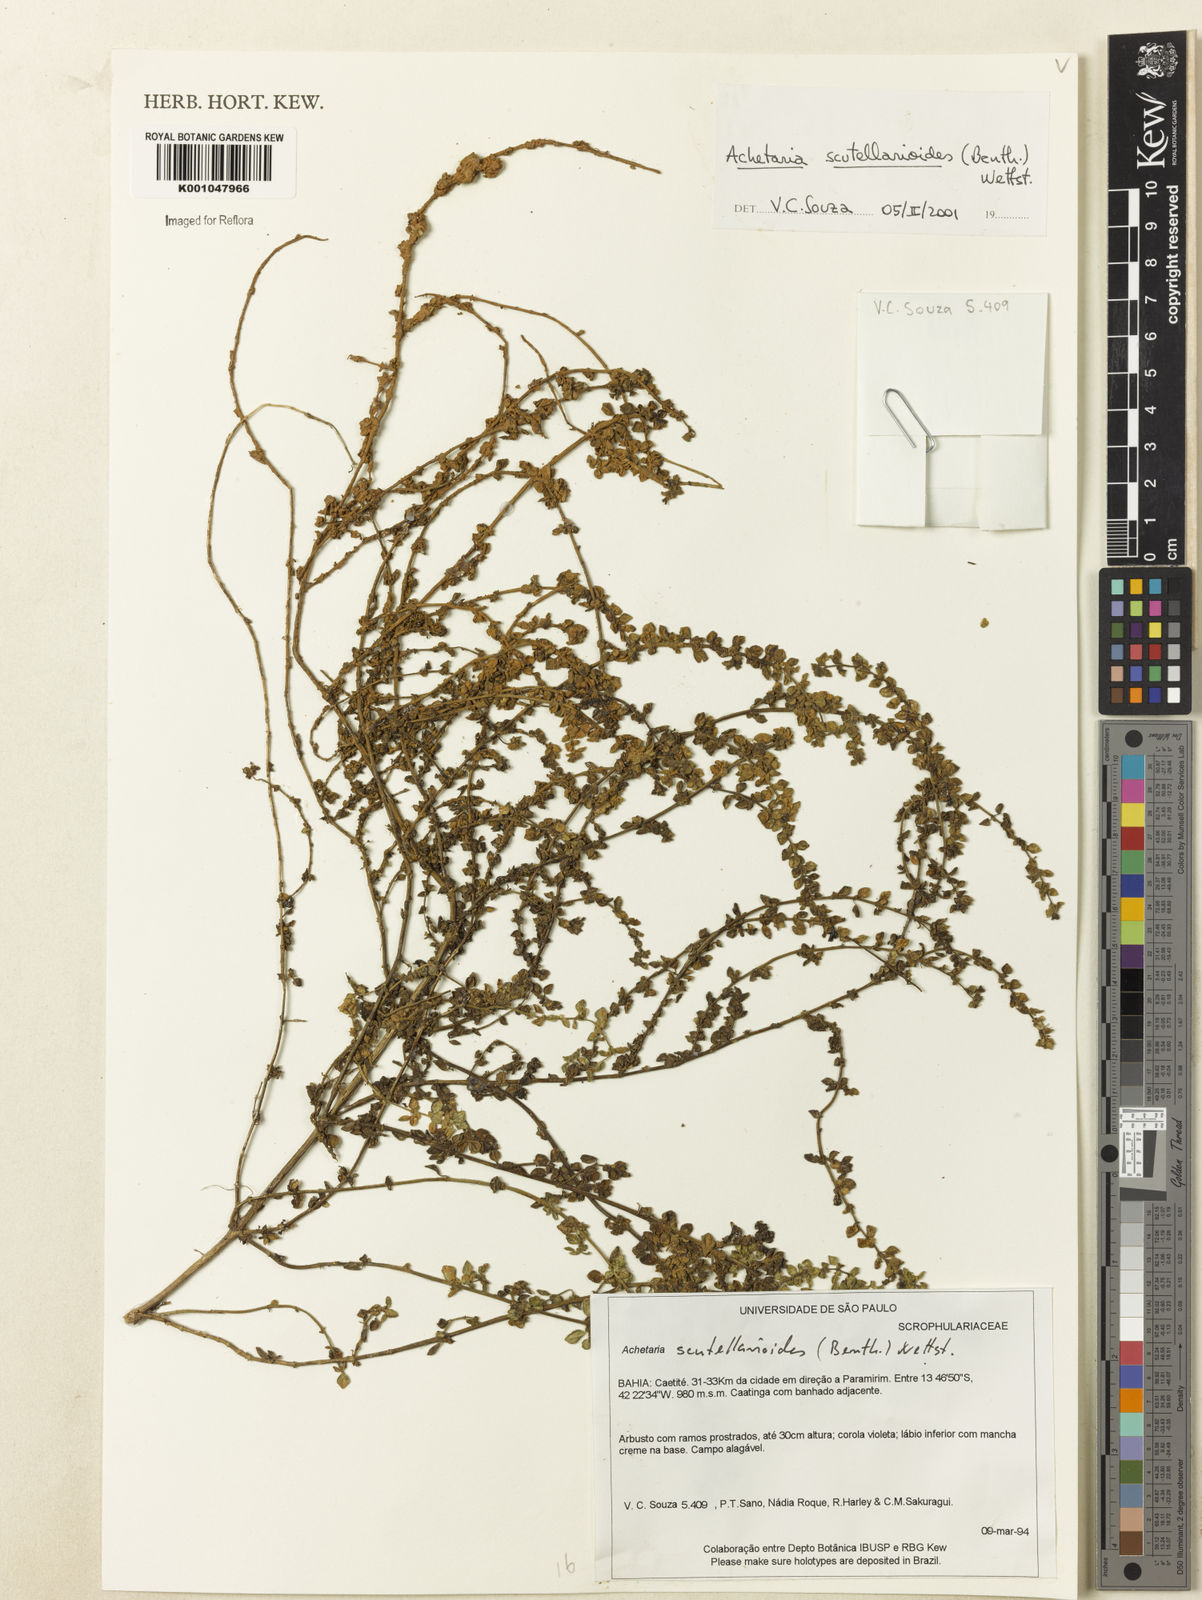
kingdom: Plantae
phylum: Tracheophyta
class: Magnoliopsida
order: Lamiales
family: Plantaginaceae
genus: Matourea
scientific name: Matourea scutellarioides
